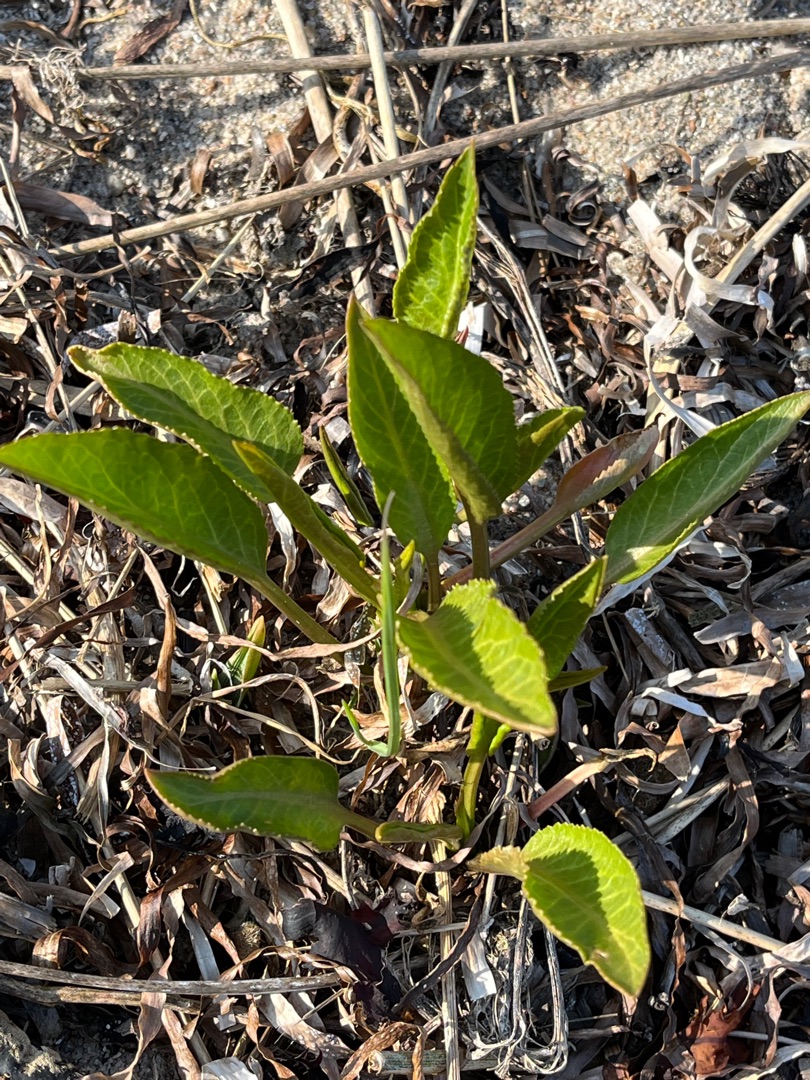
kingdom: Plantae
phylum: Tracheophyta
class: Magnoliopsida
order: Brassicales
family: Brassicaceae
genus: Lepidium
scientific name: Lepidium latifolium
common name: Strand-karse
